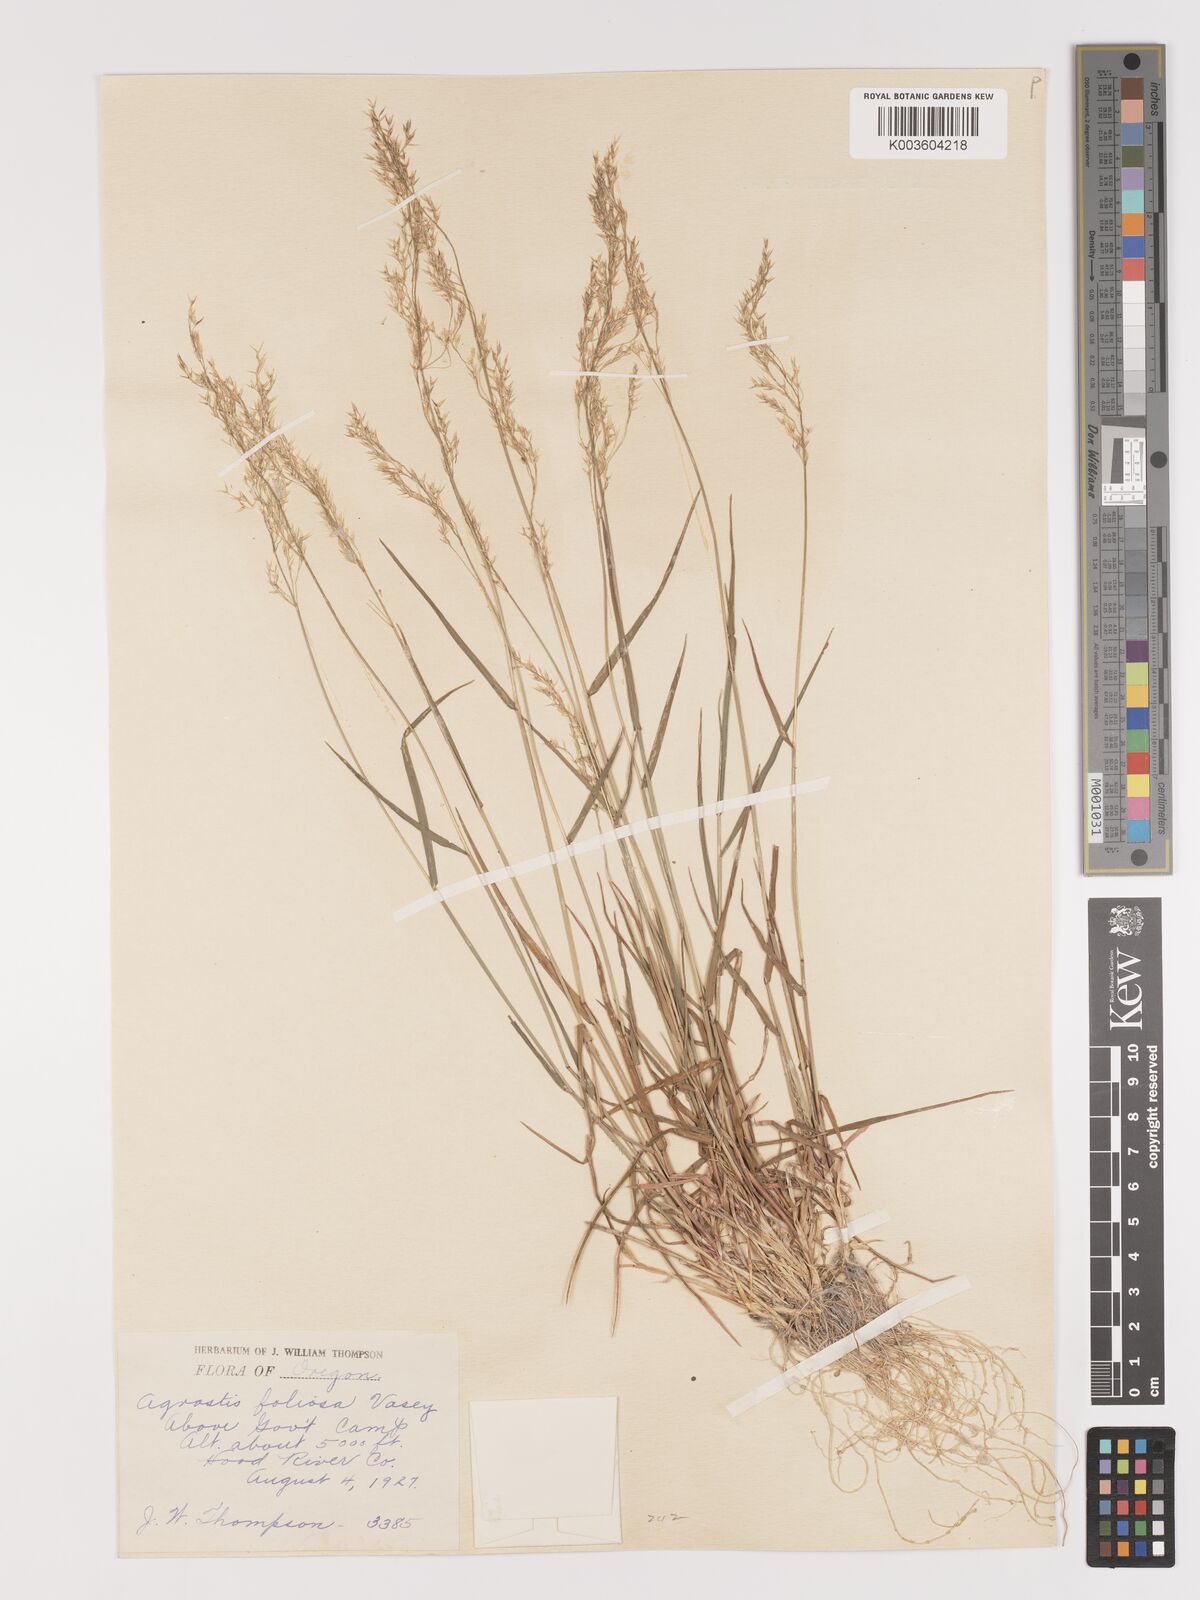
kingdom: Plantae
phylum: Tracheophyta
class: Liliopsida
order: Poales
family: Poaceae
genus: Agrostis
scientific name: Agrostis pallens
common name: Dune bent
